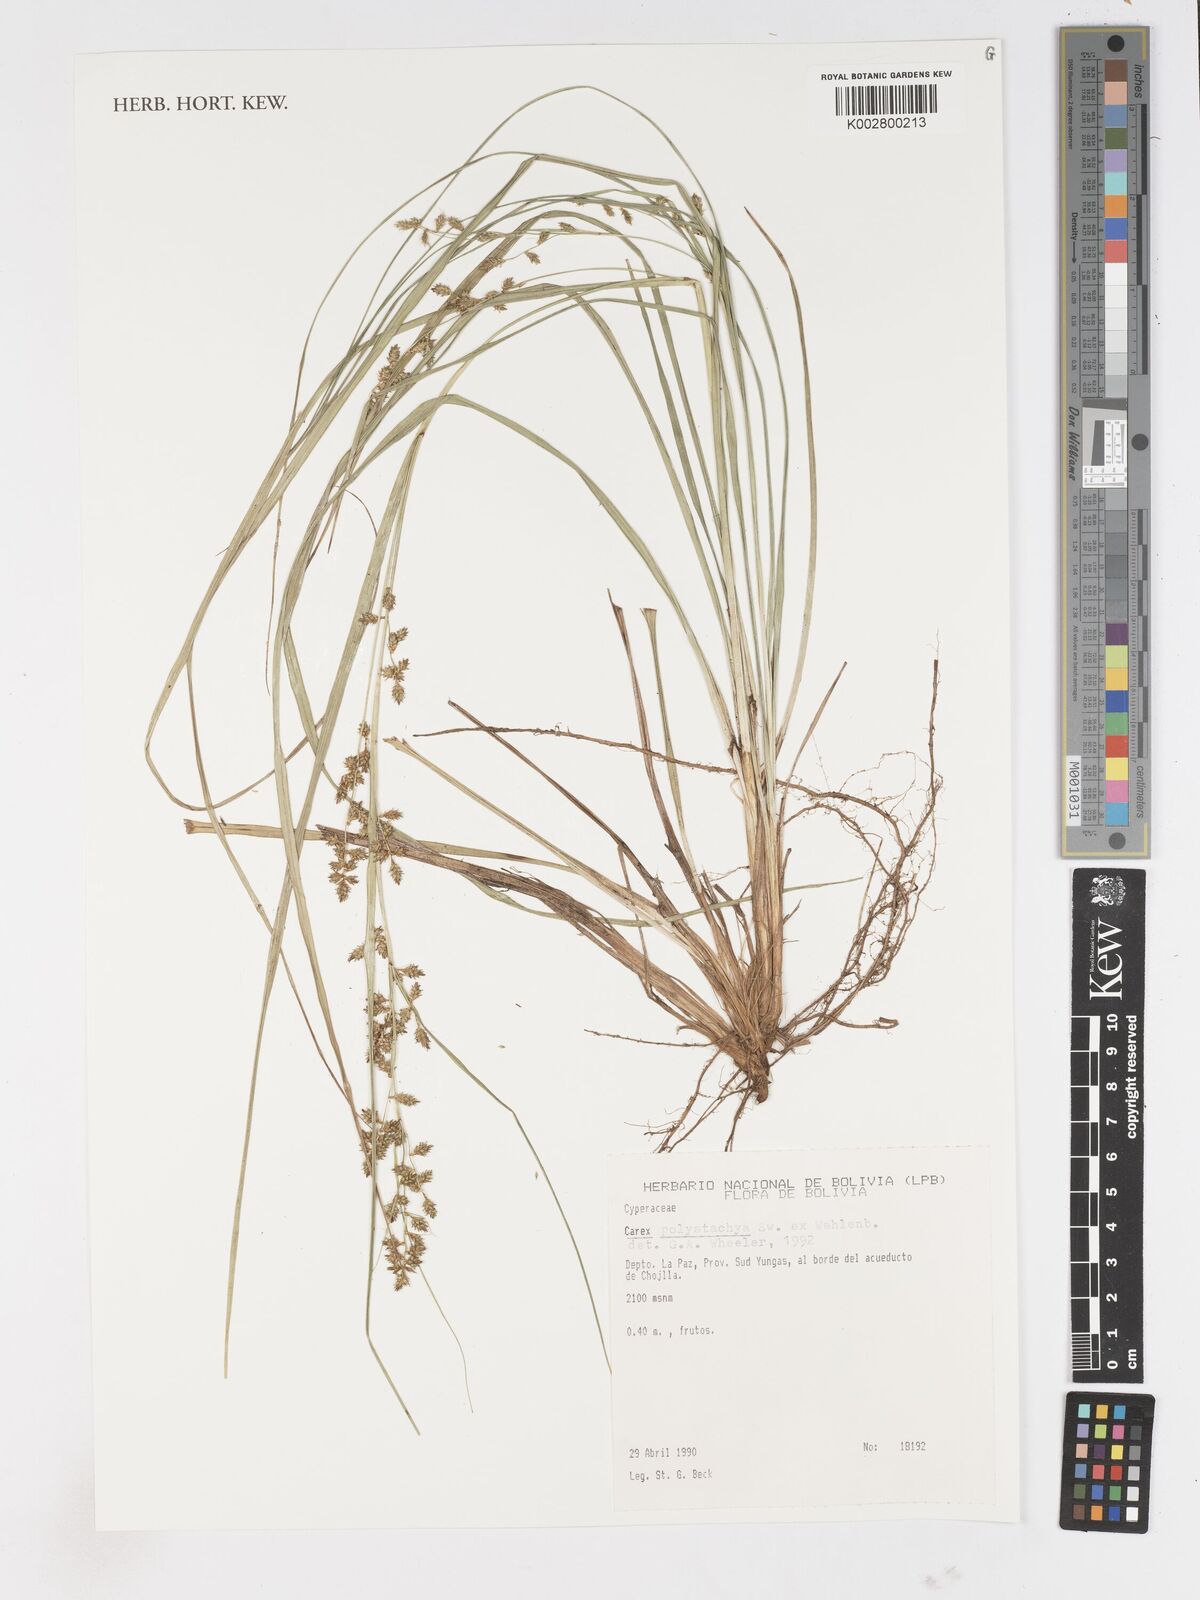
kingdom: Plantae
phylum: Tracheophyta
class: Liliopsida
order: Poales
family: Cyperaceae
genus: Carex
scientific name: Carex polysticha
